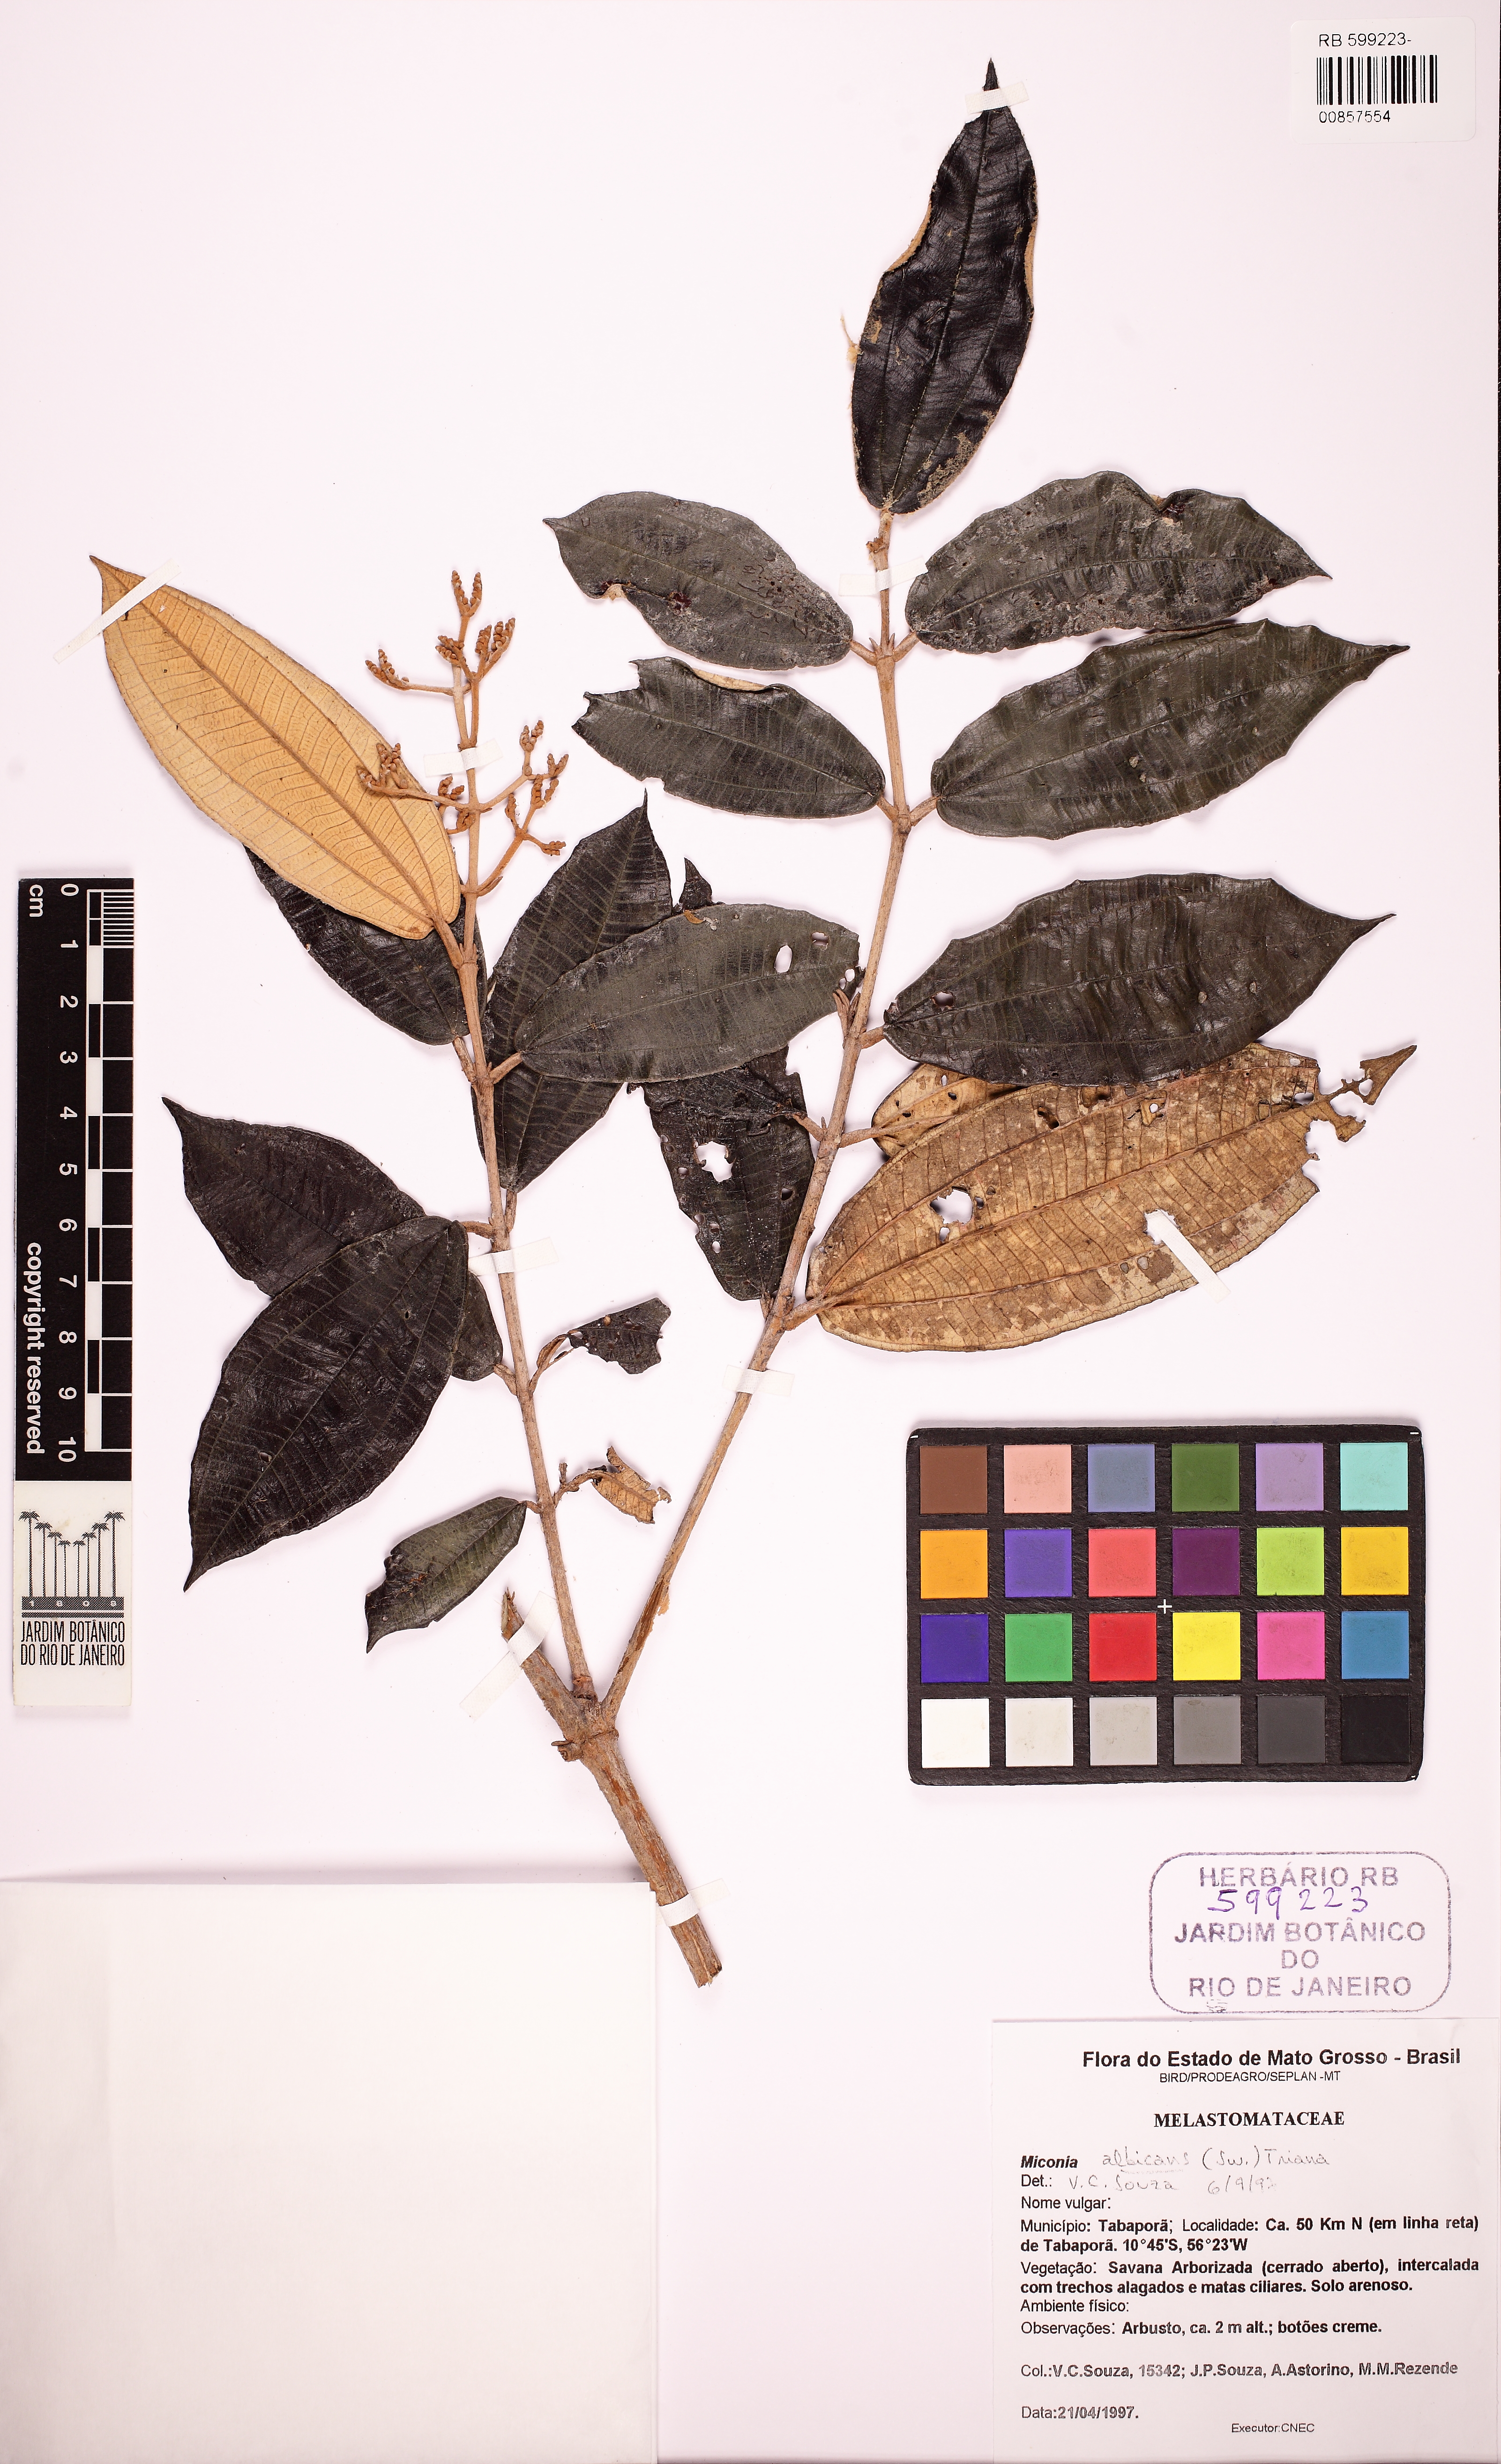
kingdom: Plantae
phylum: Tracheophyta
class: Magnoliopsida
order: Myrtales
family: Melastomataceae
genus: Miconia
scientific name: Miconia albicans
